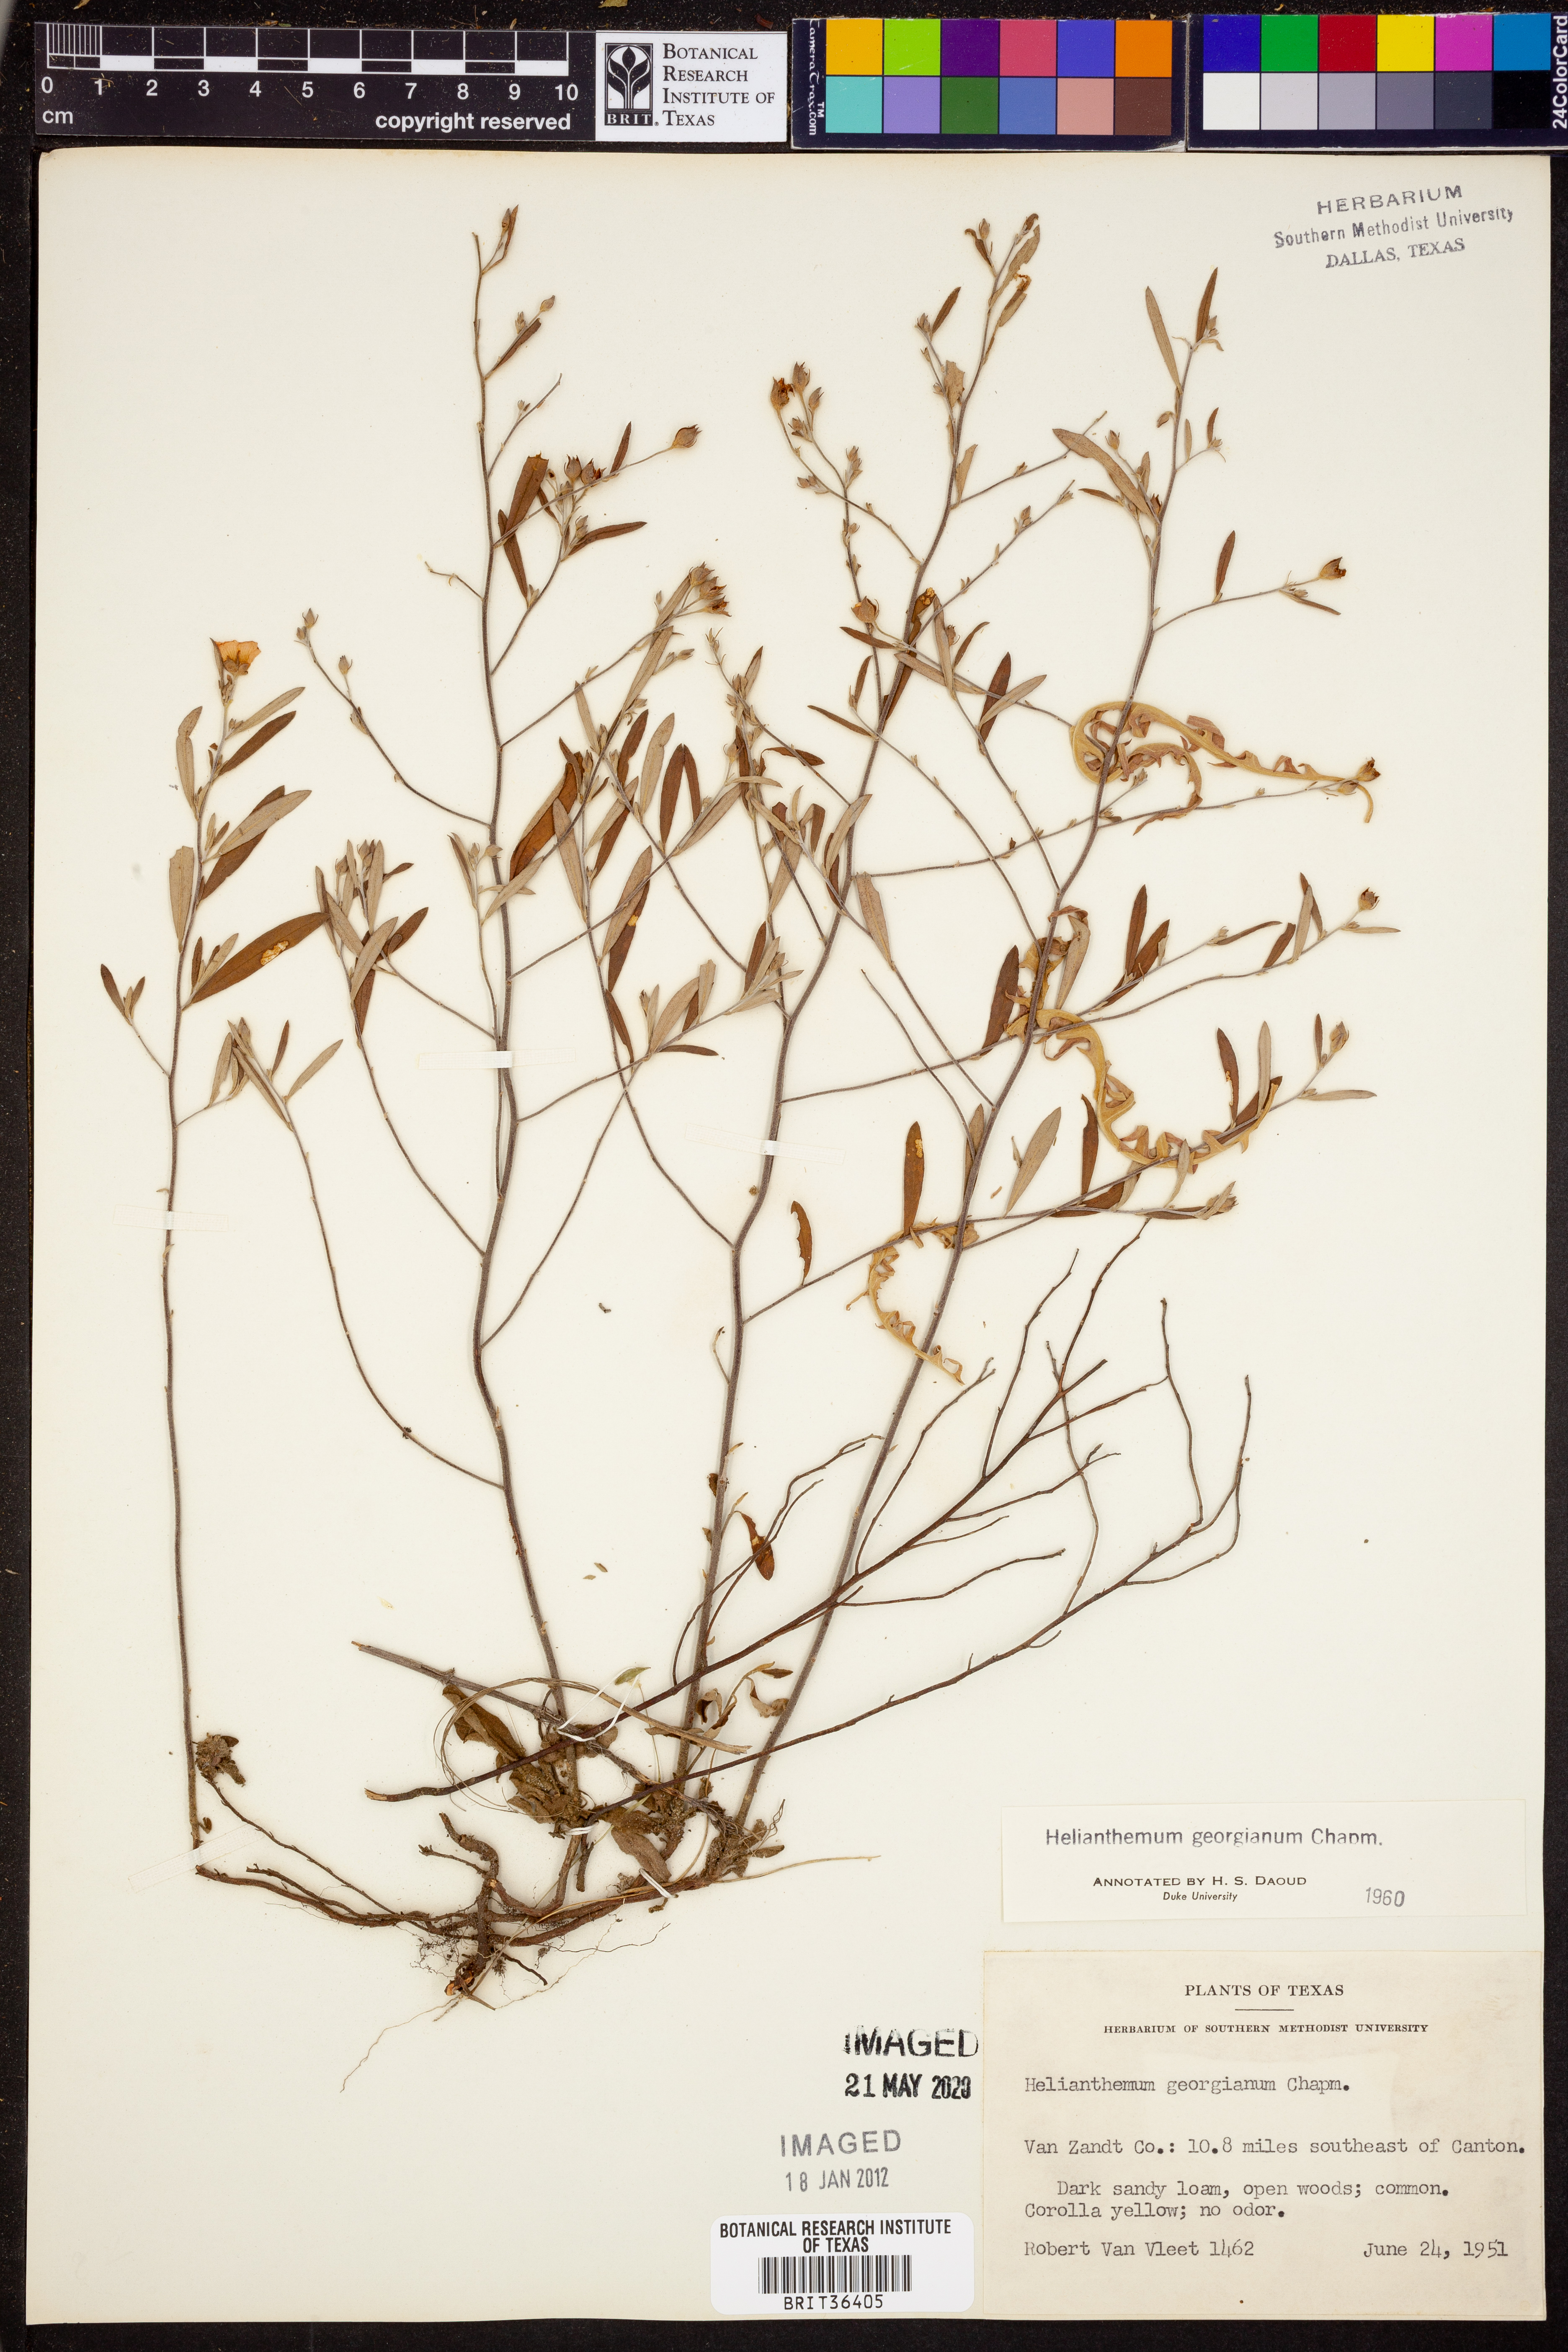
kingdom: Plantae
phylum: Tracheophyta
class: Magnoliopsida
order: Malvales
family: Cistaceae
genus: Crocanthemum
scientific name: Crocanthemum georgianum
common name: Georgia frostweed
